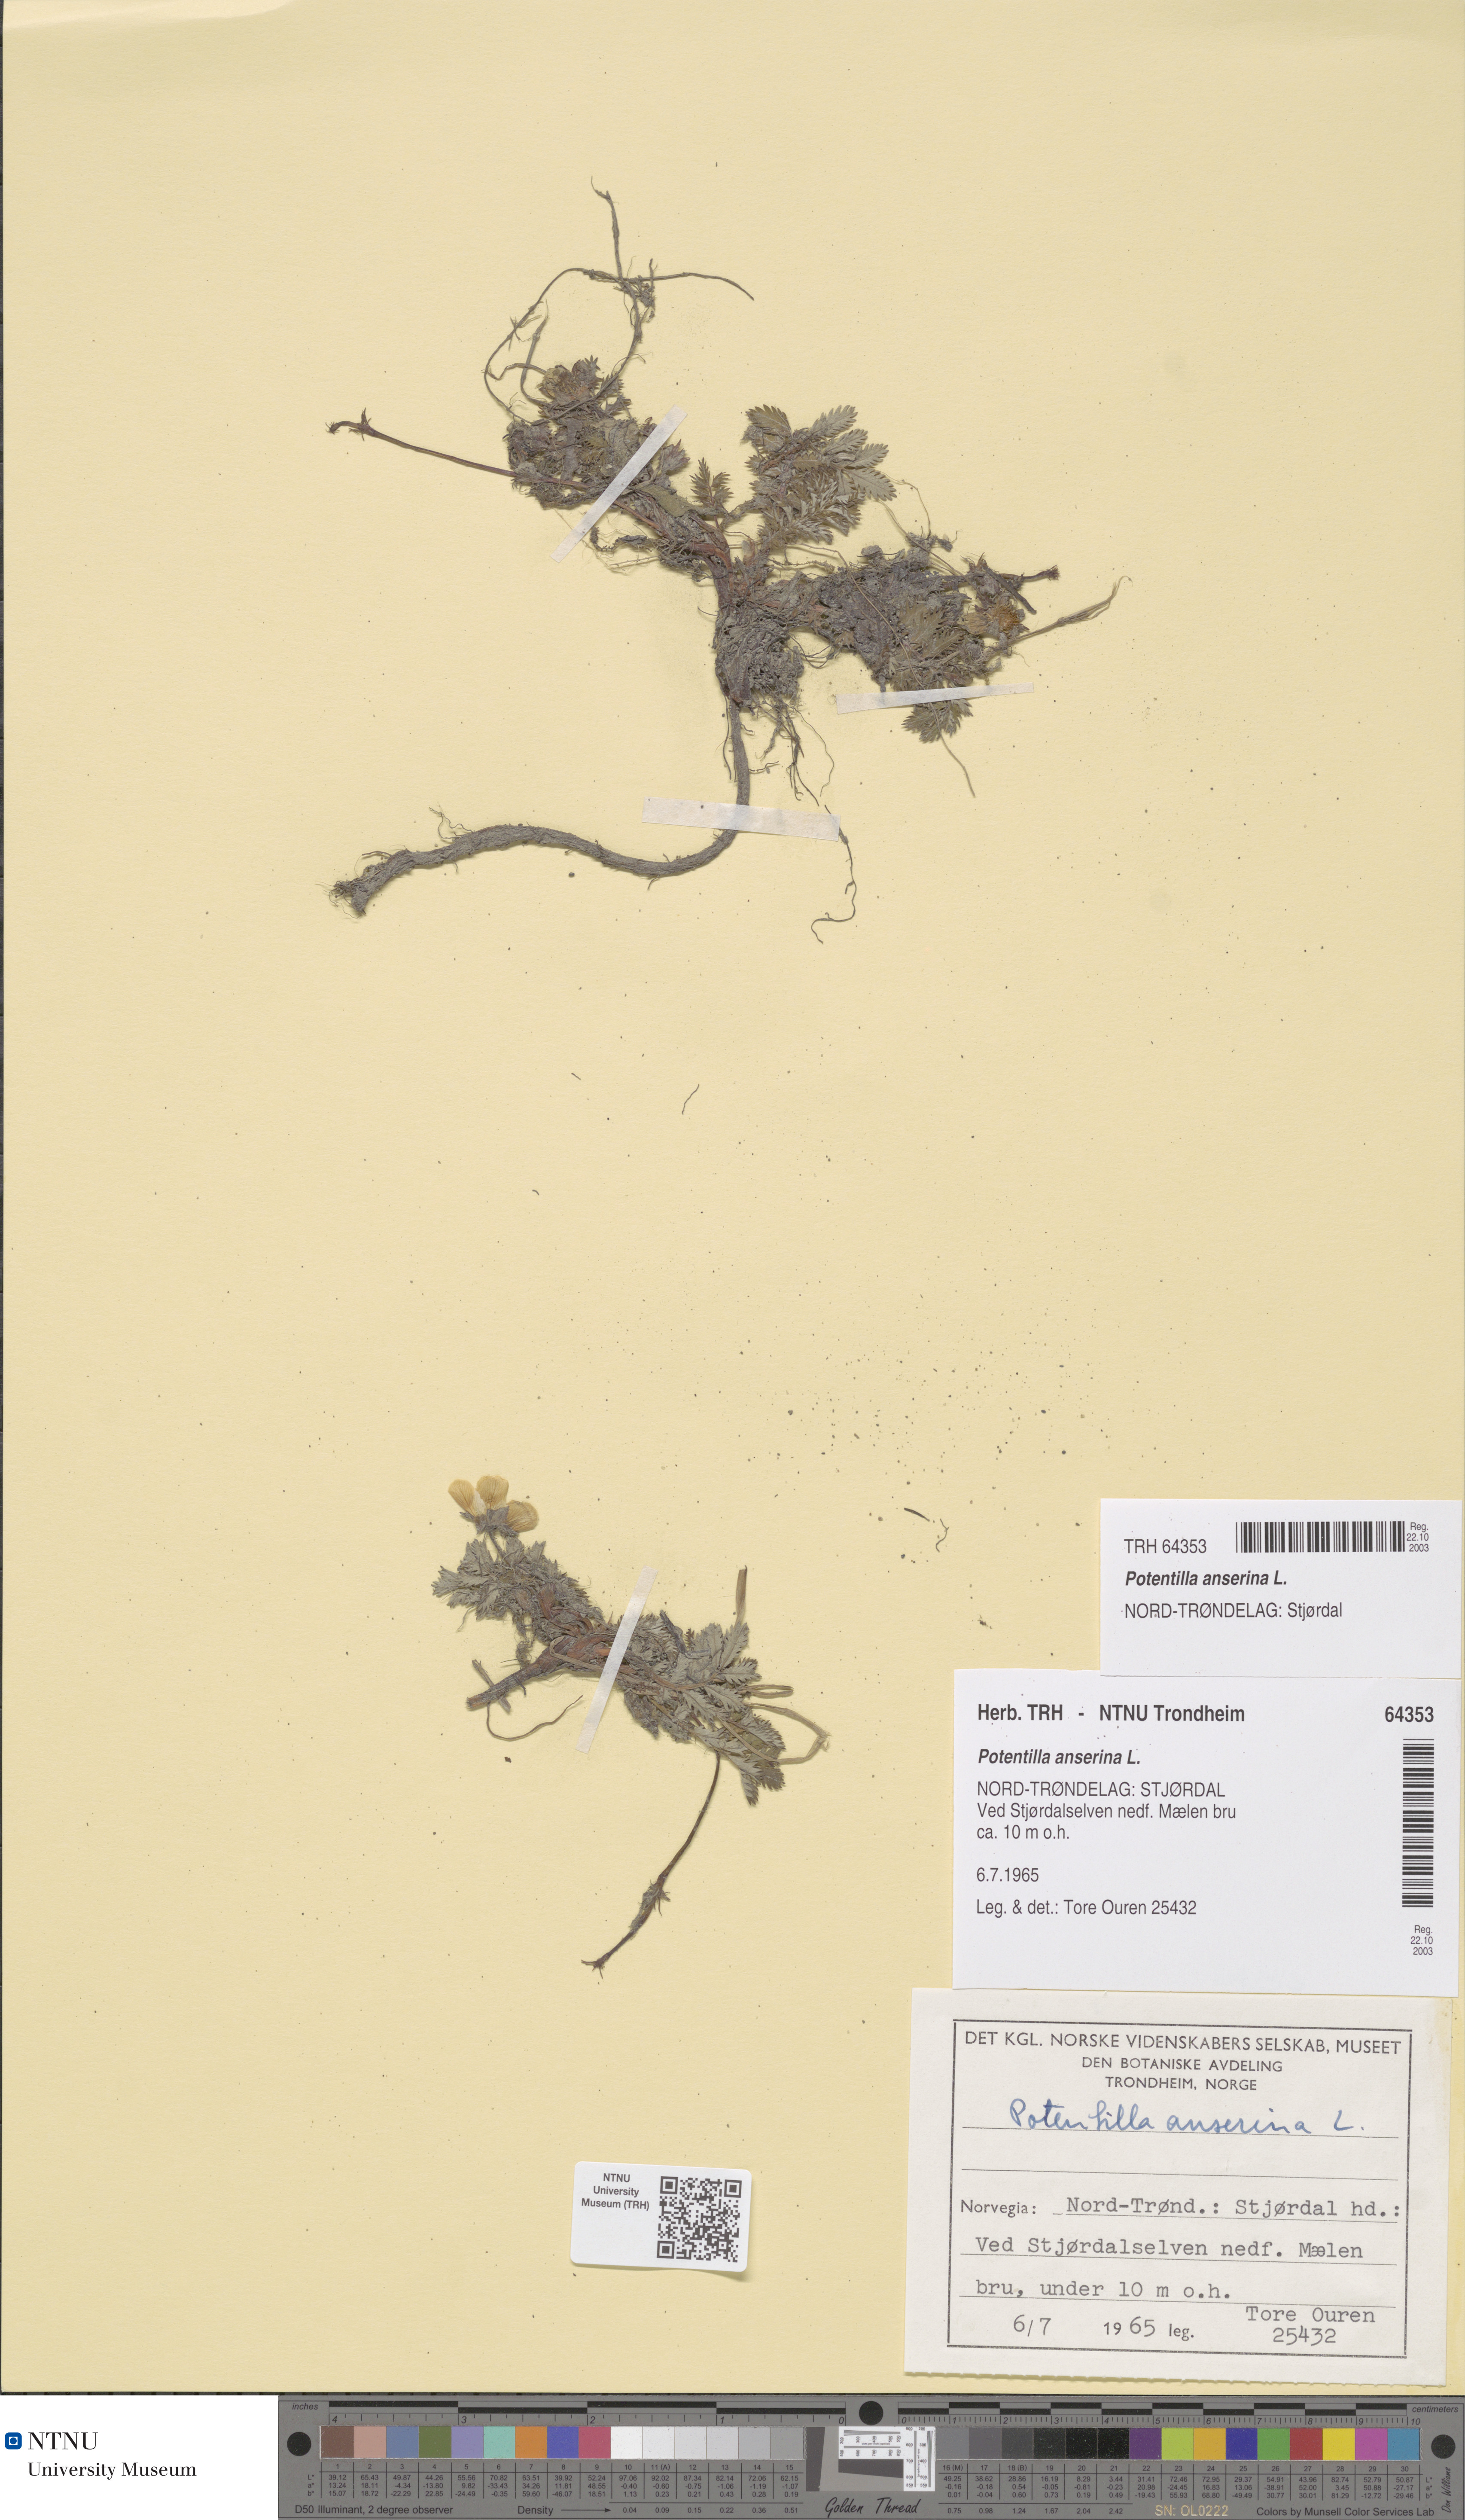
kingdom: Plantae
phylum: Tracheophyta
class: Magnoliopsida
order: Rosales
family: Rosaceae
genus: Argentina
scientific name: Argentina anserina
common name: Common silverweed
